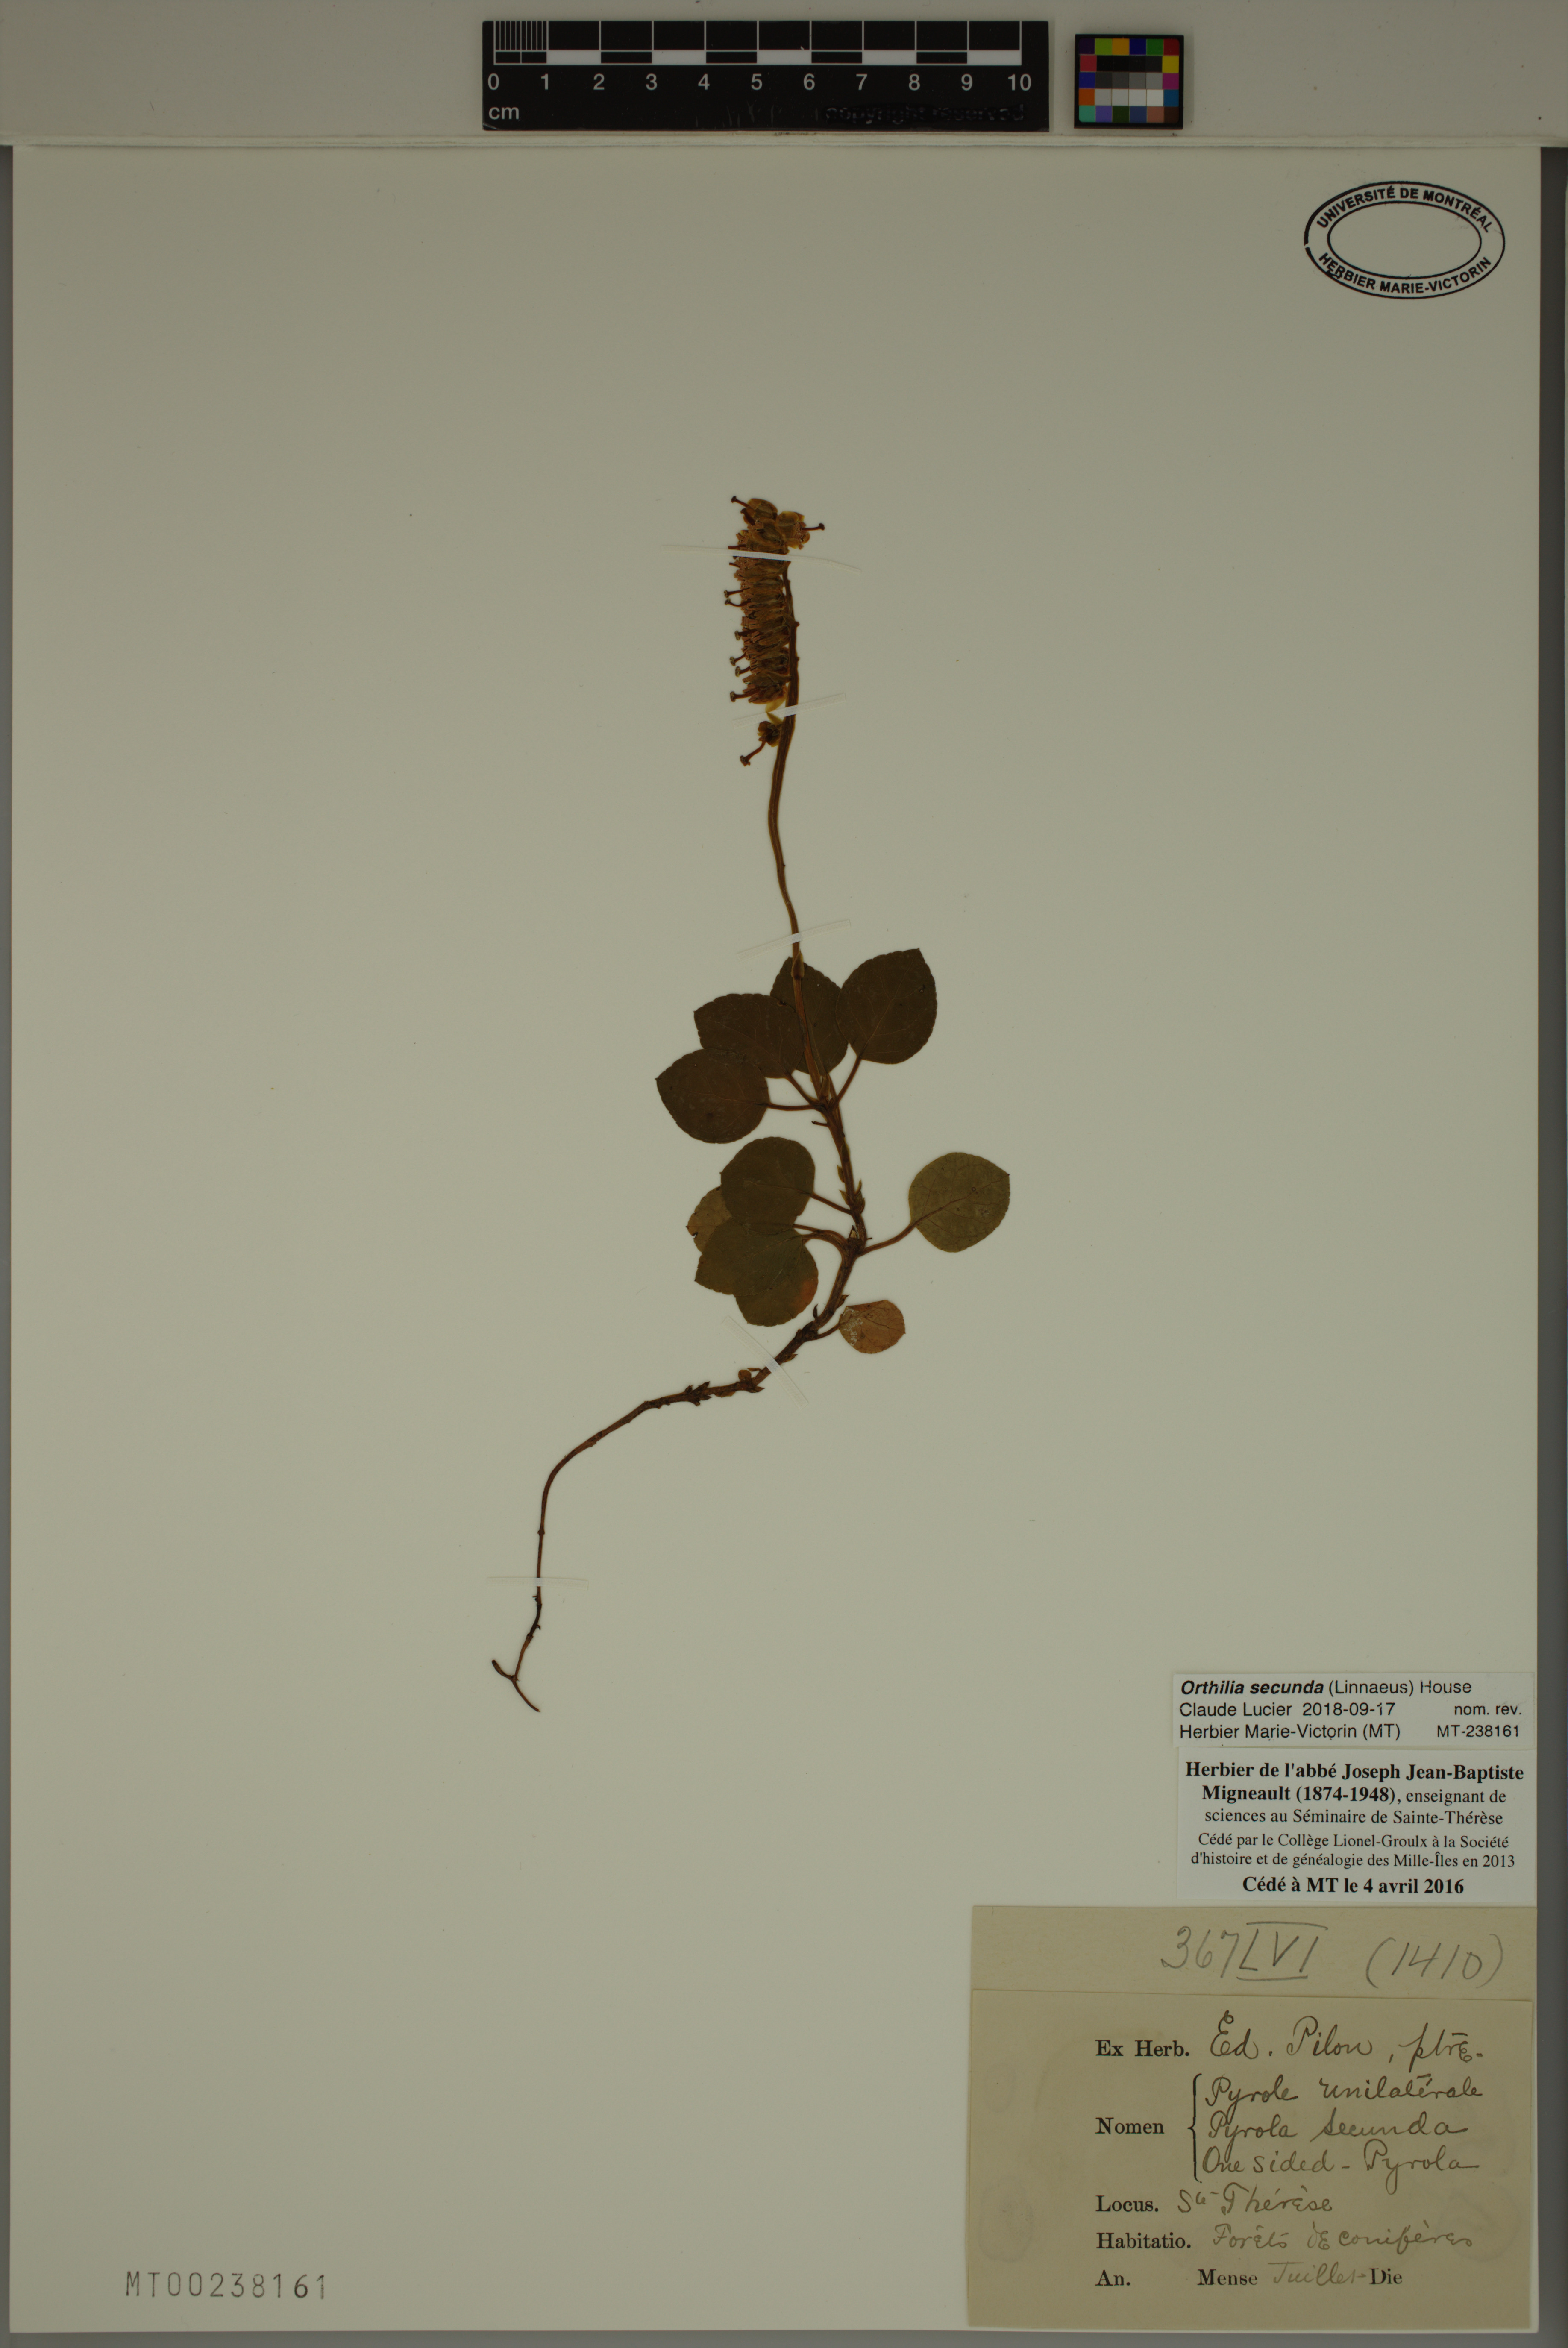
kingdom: Plantae
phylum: Tracheophyta
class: Magnoliopsida
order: Ericales
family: Ericaceae
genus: Orthilia
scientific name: Orthilia secunda
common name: One-sided orthilia
